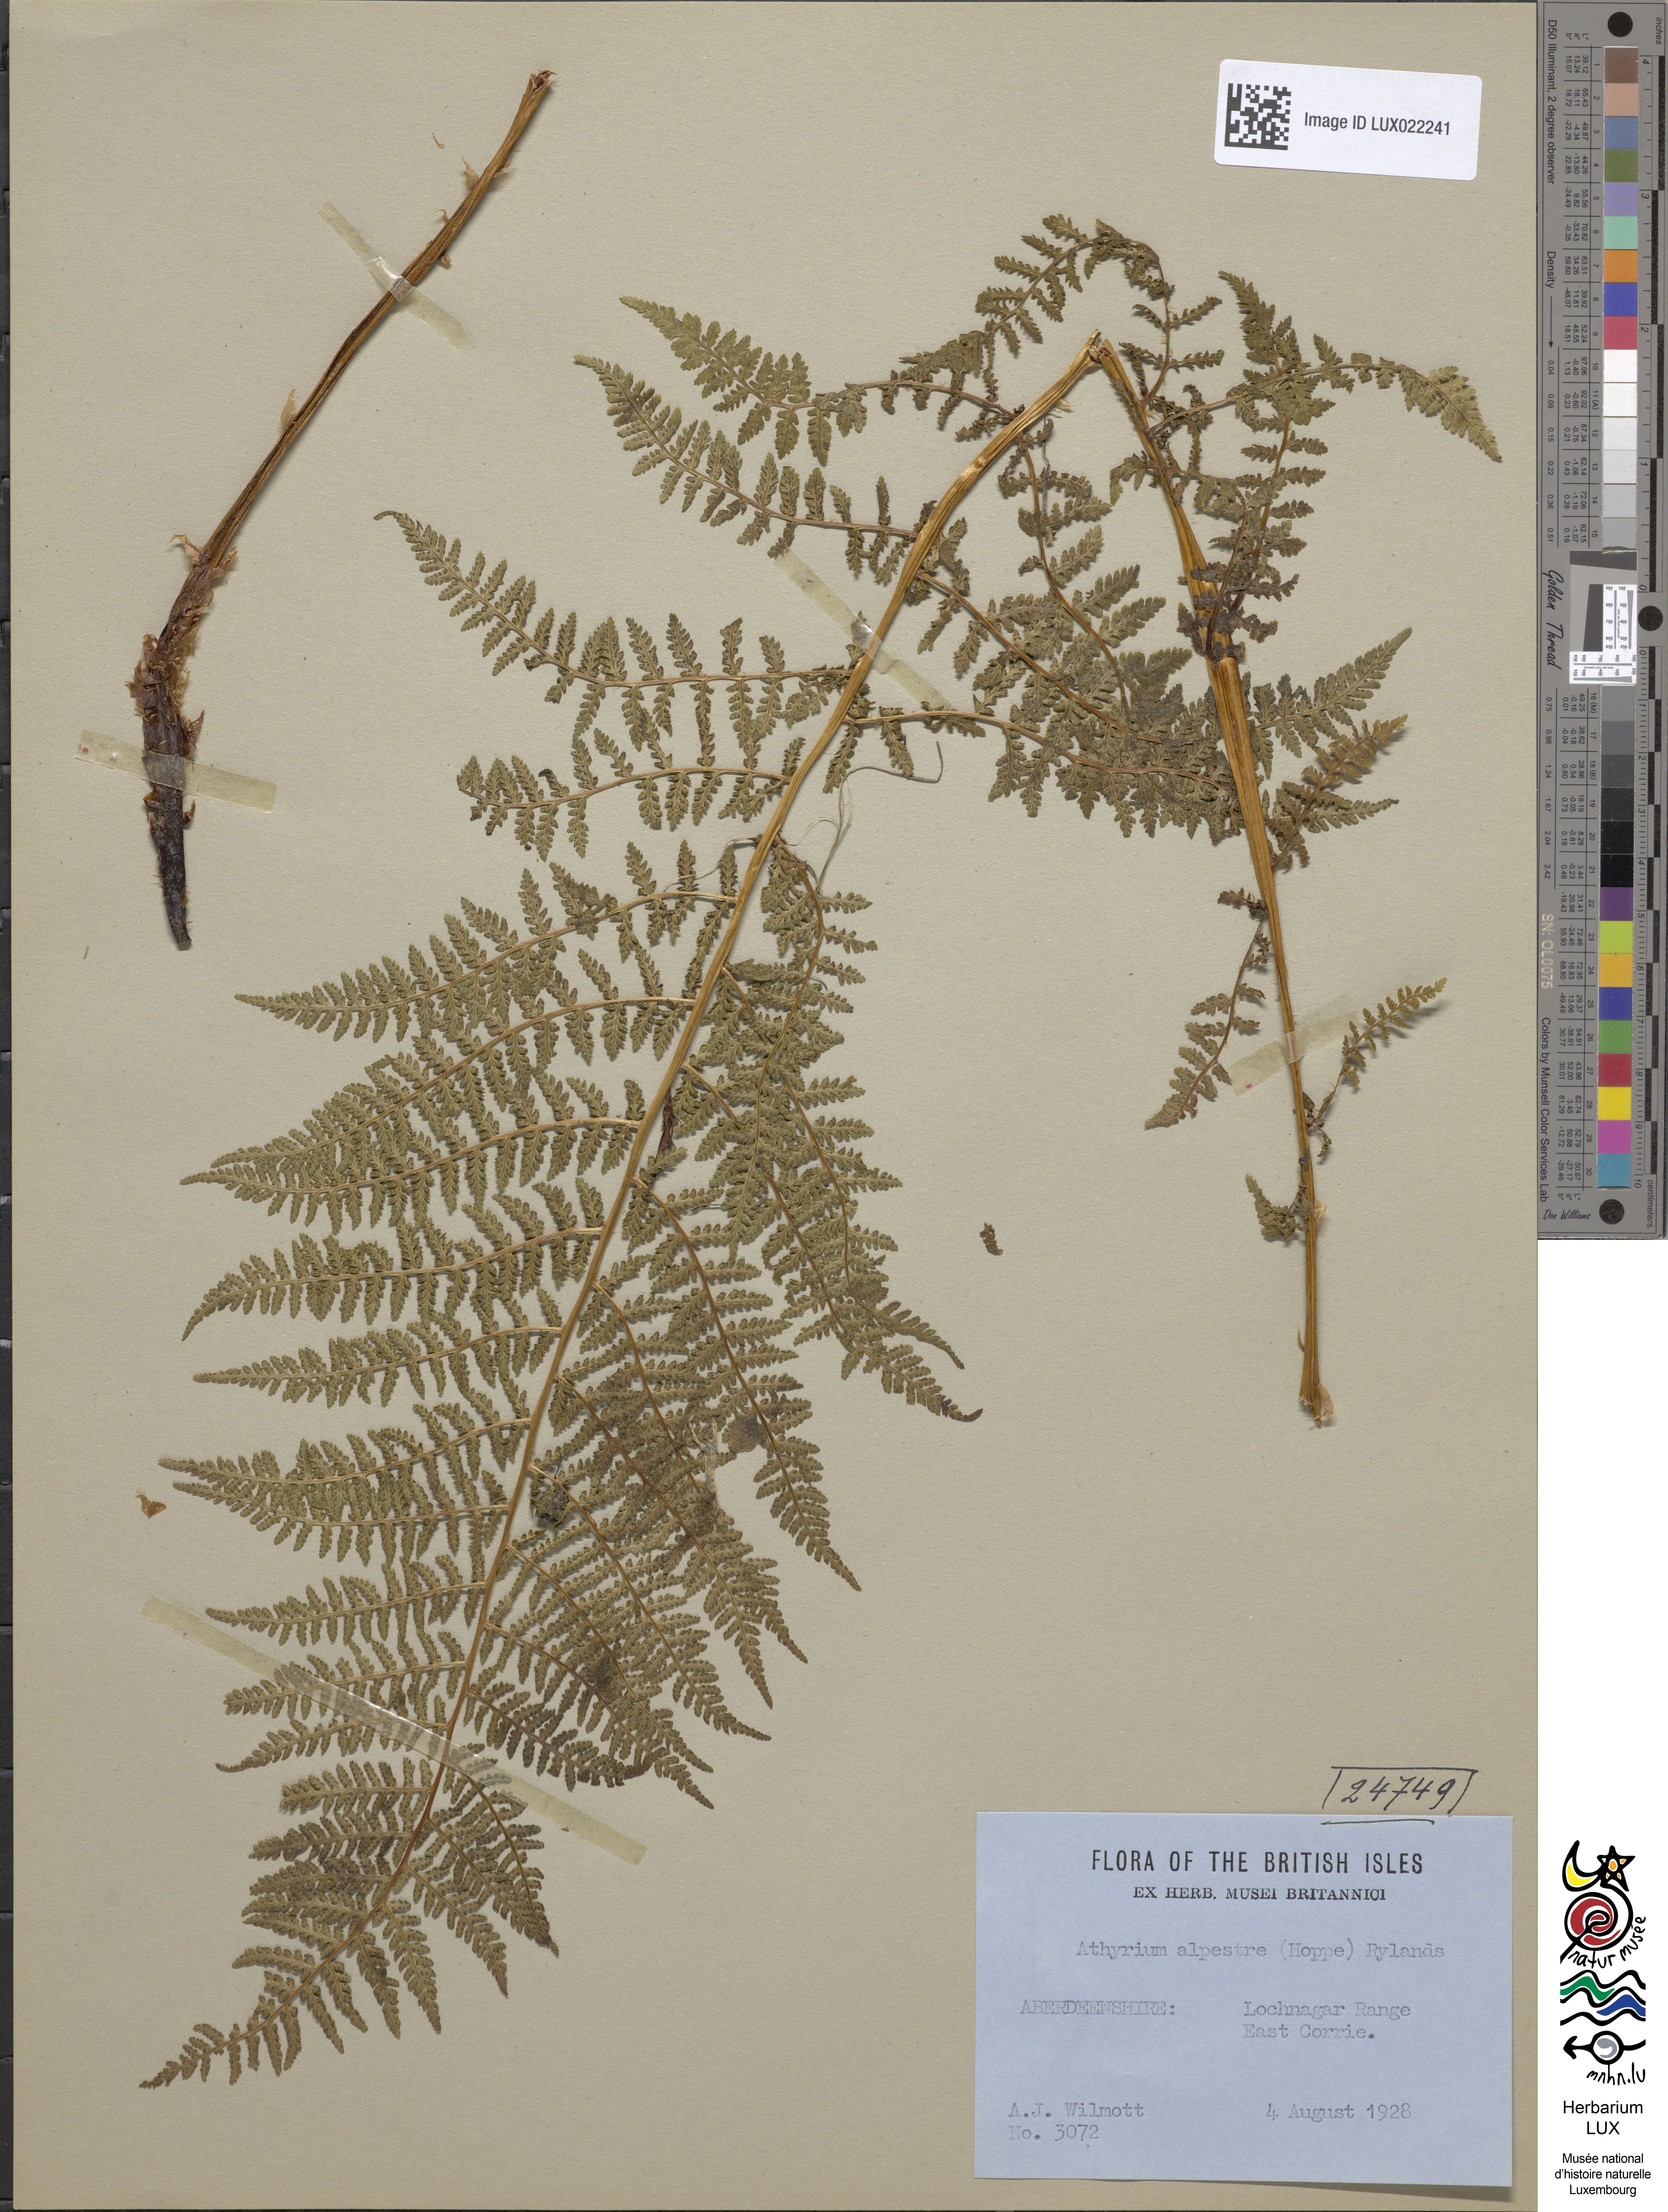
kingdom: Plantae
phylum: Tracheophyta
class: Polypodiopsida
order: Polypodiales
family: Athyriaceae
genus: Pseudathyrium
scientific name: Pseudathyrium alpestre
